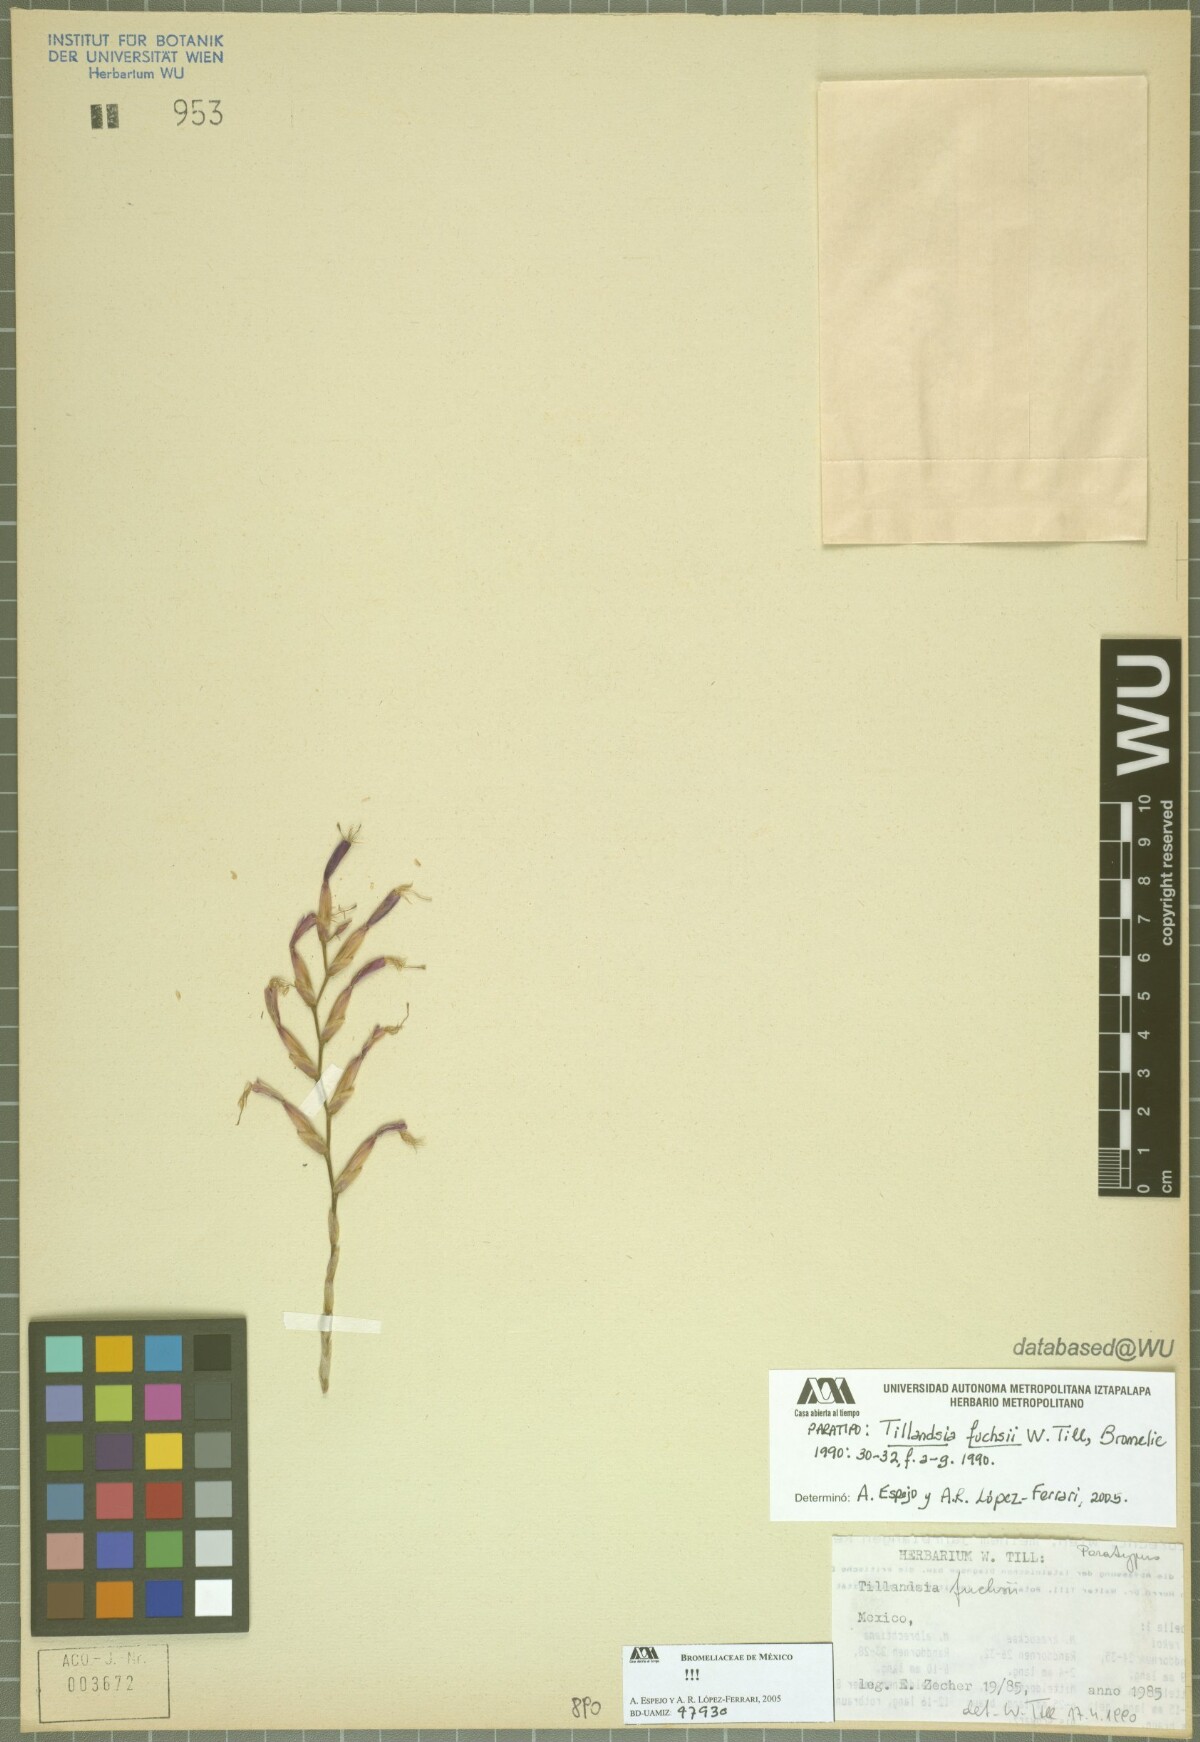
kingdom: Plantae
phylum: Tracheophyta
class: Liliopsida
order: Poales
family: Bromeliaceae
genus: Tillandsia
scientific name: Tillandsia fuchsii
